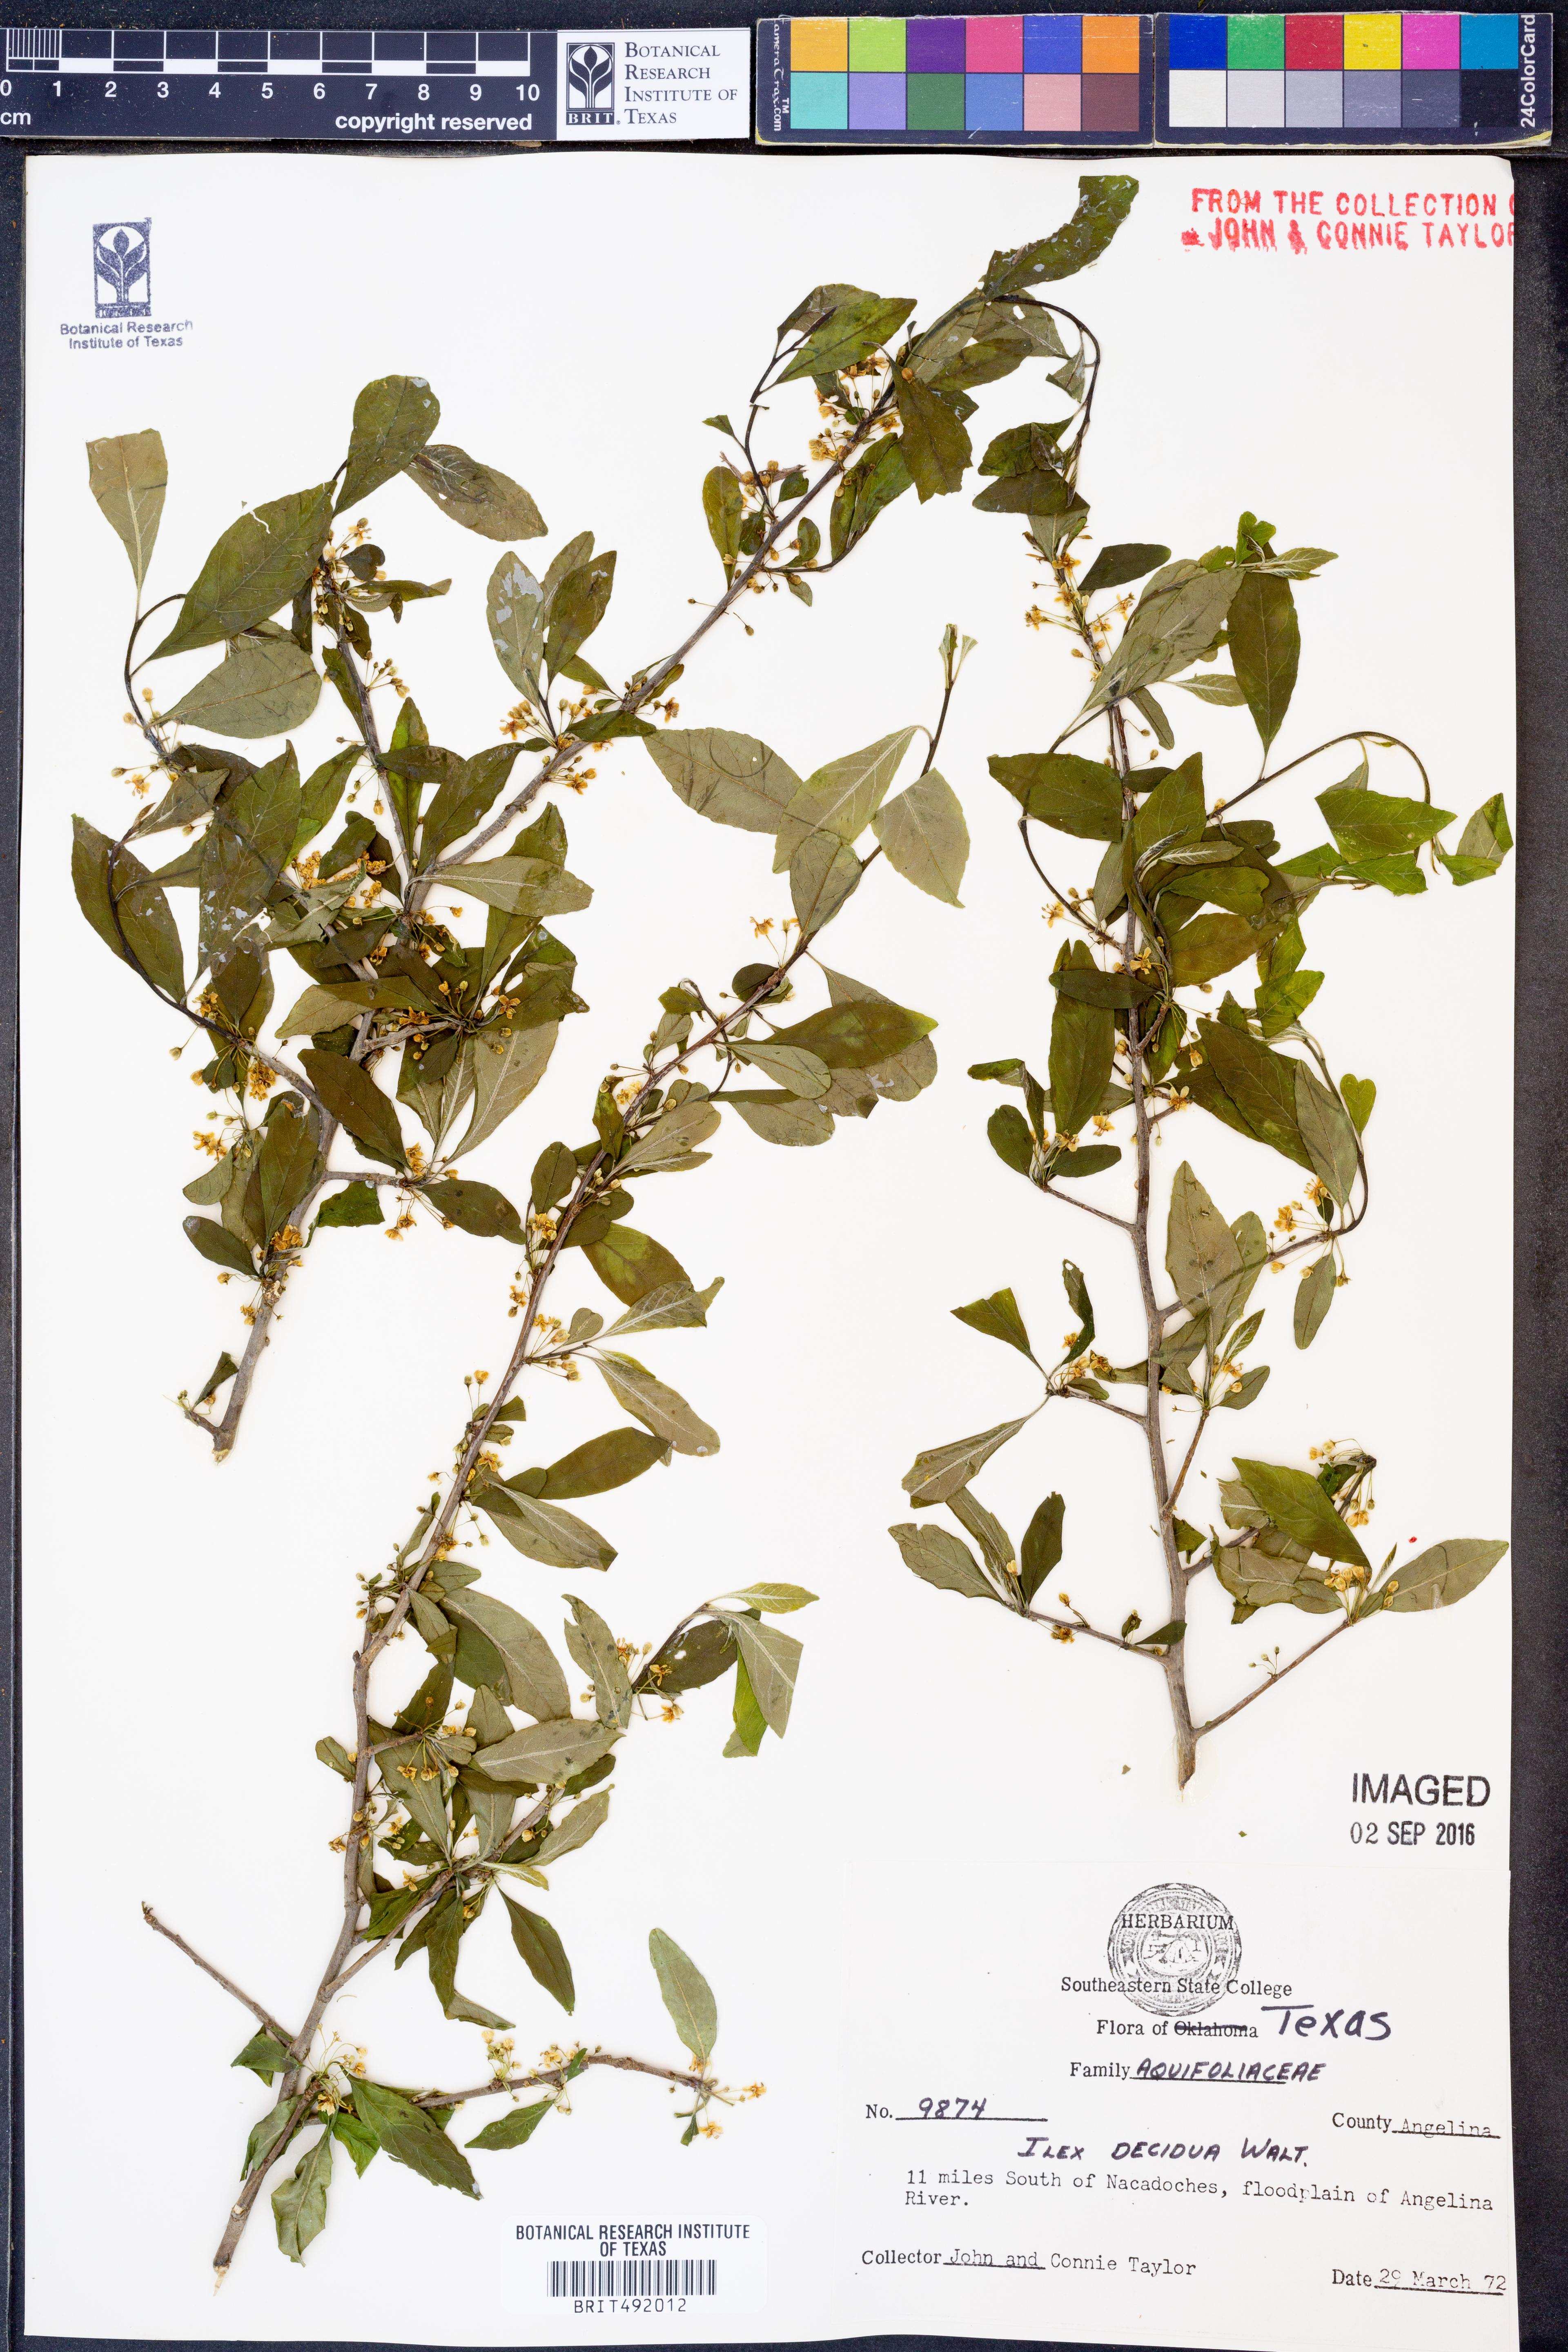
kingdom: Plantae
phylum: Tracheophyta
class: Magnoliopsida
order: Aquifoliales
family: Aquifoliaceae
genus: Ilex
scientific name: Ilex decidua
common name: Possum-haw
